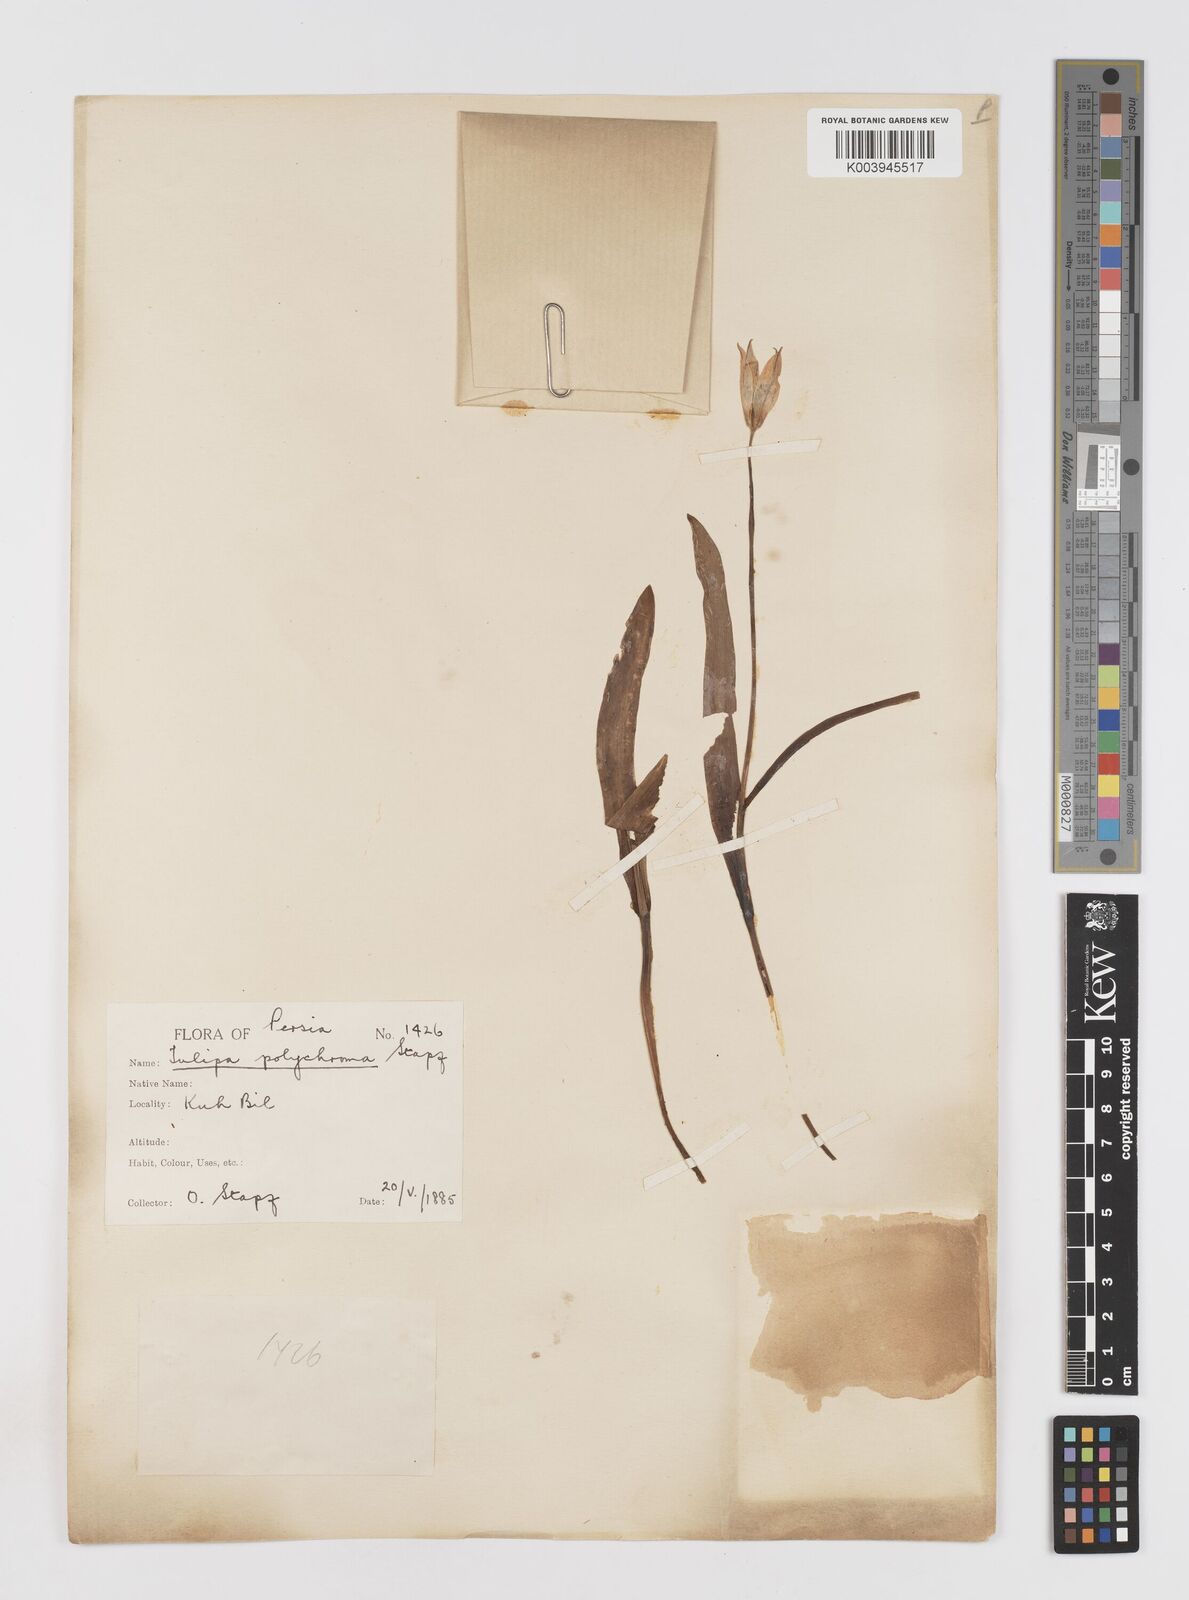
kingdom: Plantae
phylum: Tracheophyta
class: Liliopsida
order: Liliales
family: Liliaceae
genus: Tulipa
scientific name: Tulipa biflora
